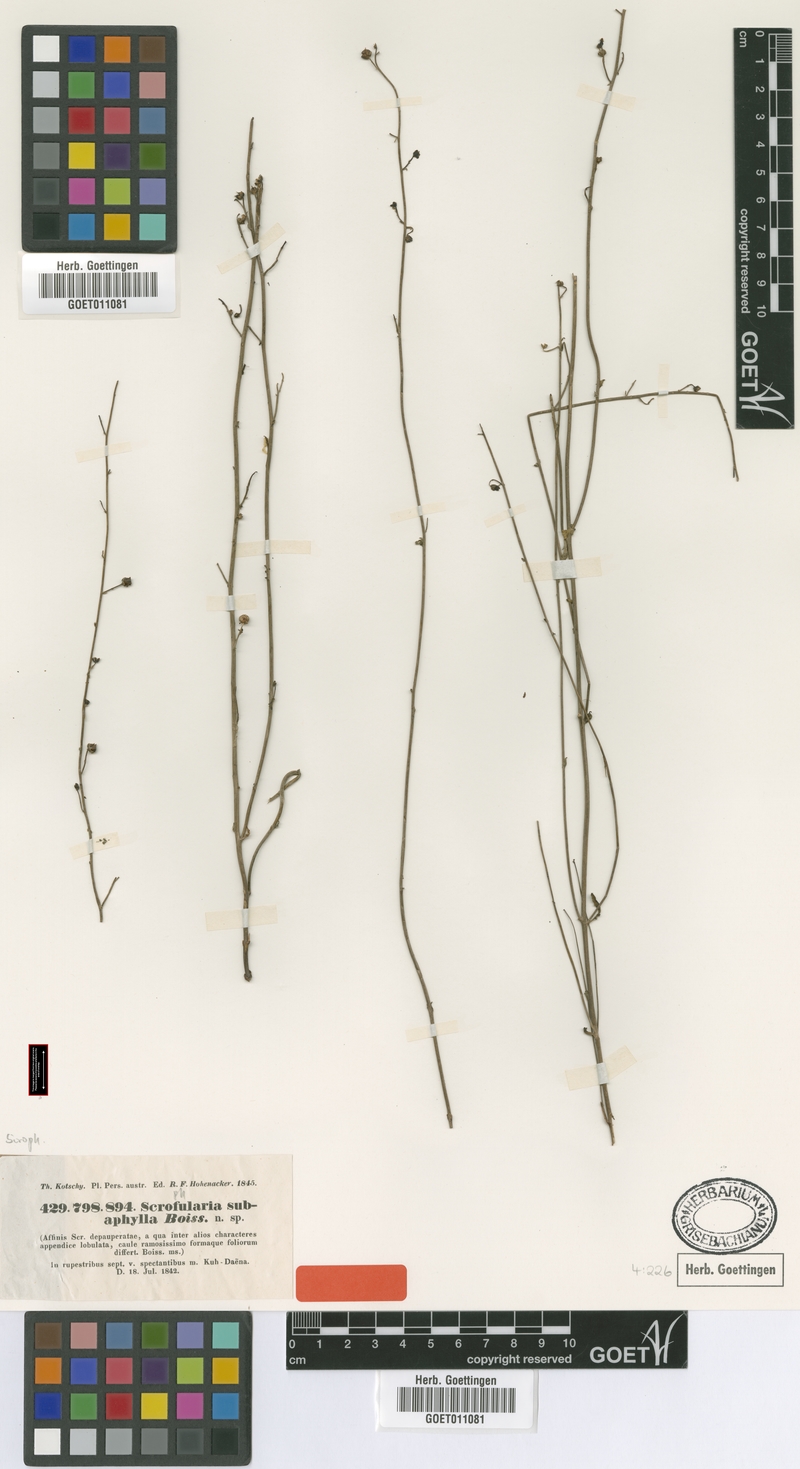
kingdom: Plantae
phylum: Tracheophyta
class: Magnoliopsida
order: Lamiales
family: Scrophulariaceae
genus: Scrophularia
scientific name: Scrophularia subaphylla
